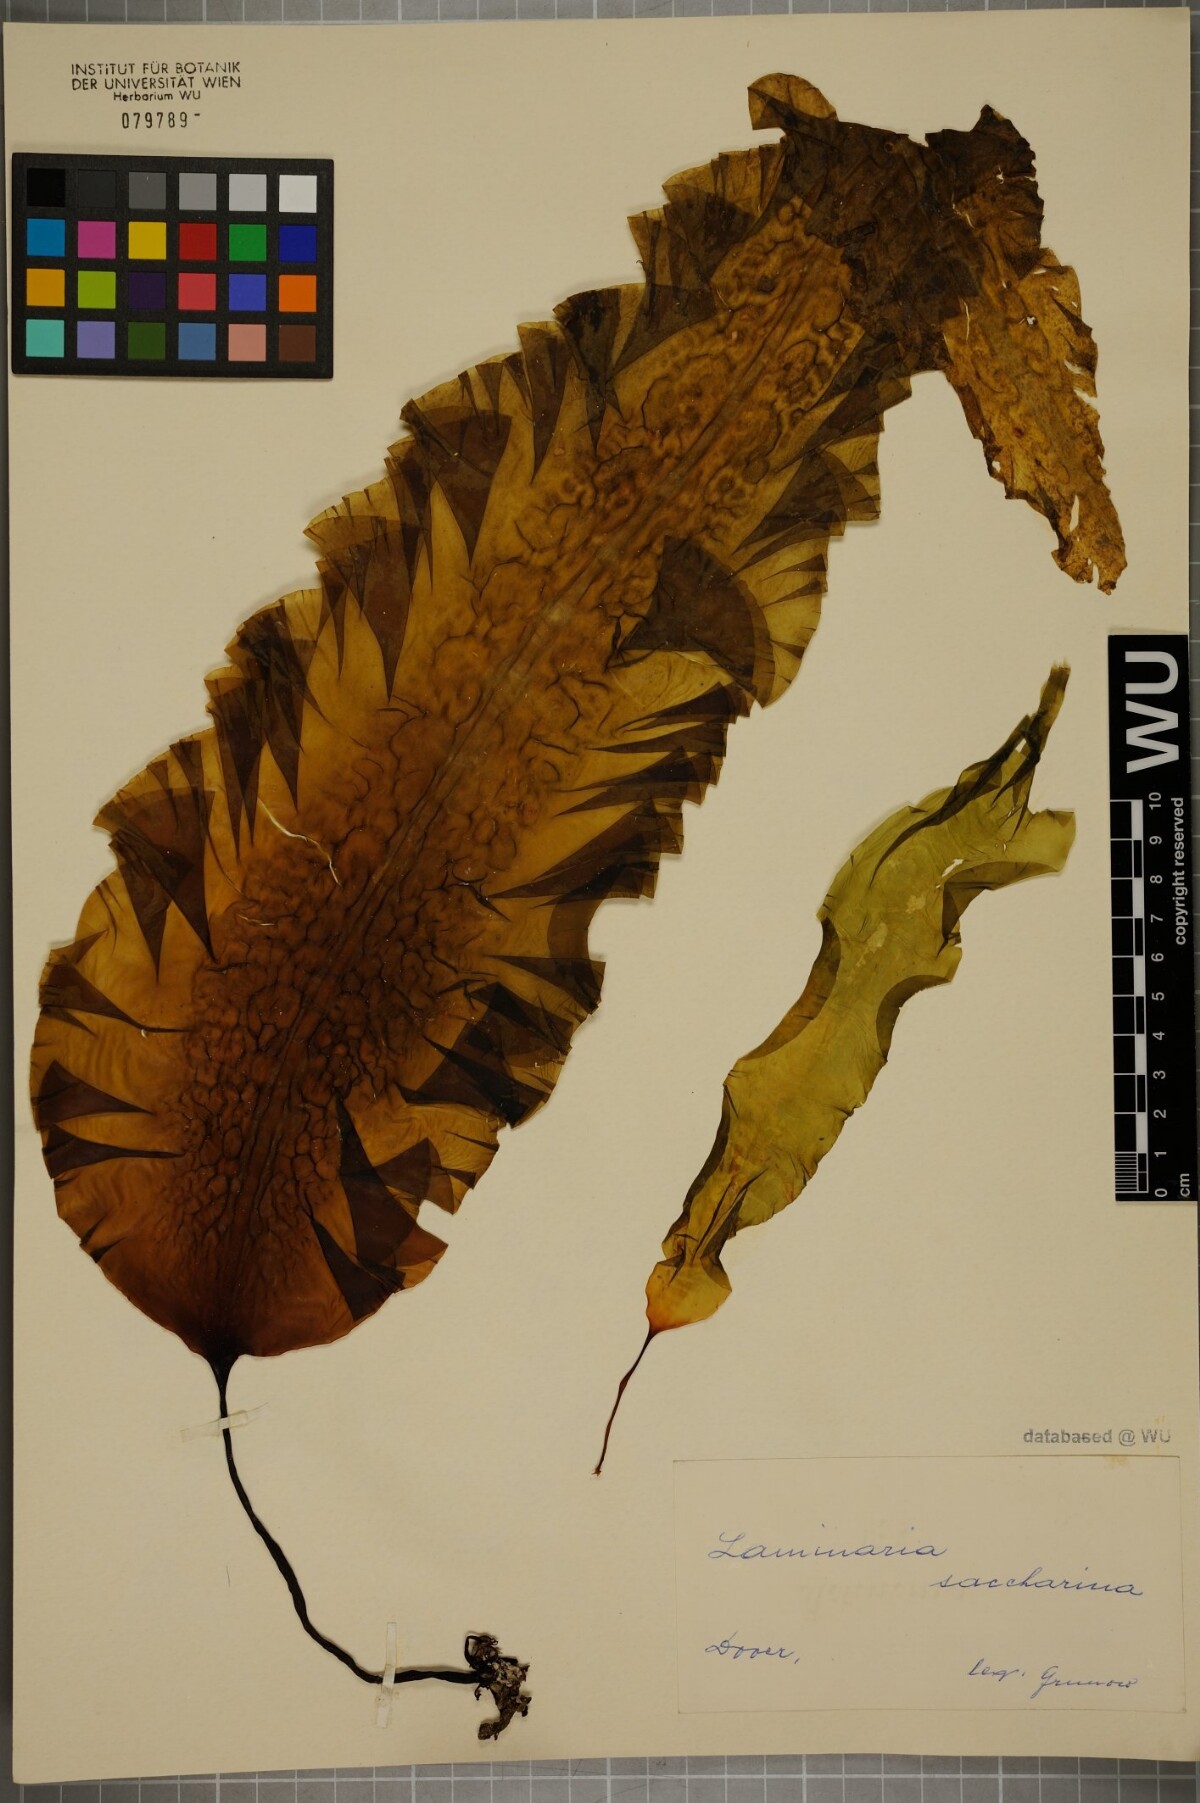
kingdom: Chromista
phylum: Ochrophyta
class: Phaeophyceae
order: Laminariales
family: Laminariaceae
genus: Saccharina
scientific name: Saccharina latissima
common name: Poor man's weather glass
